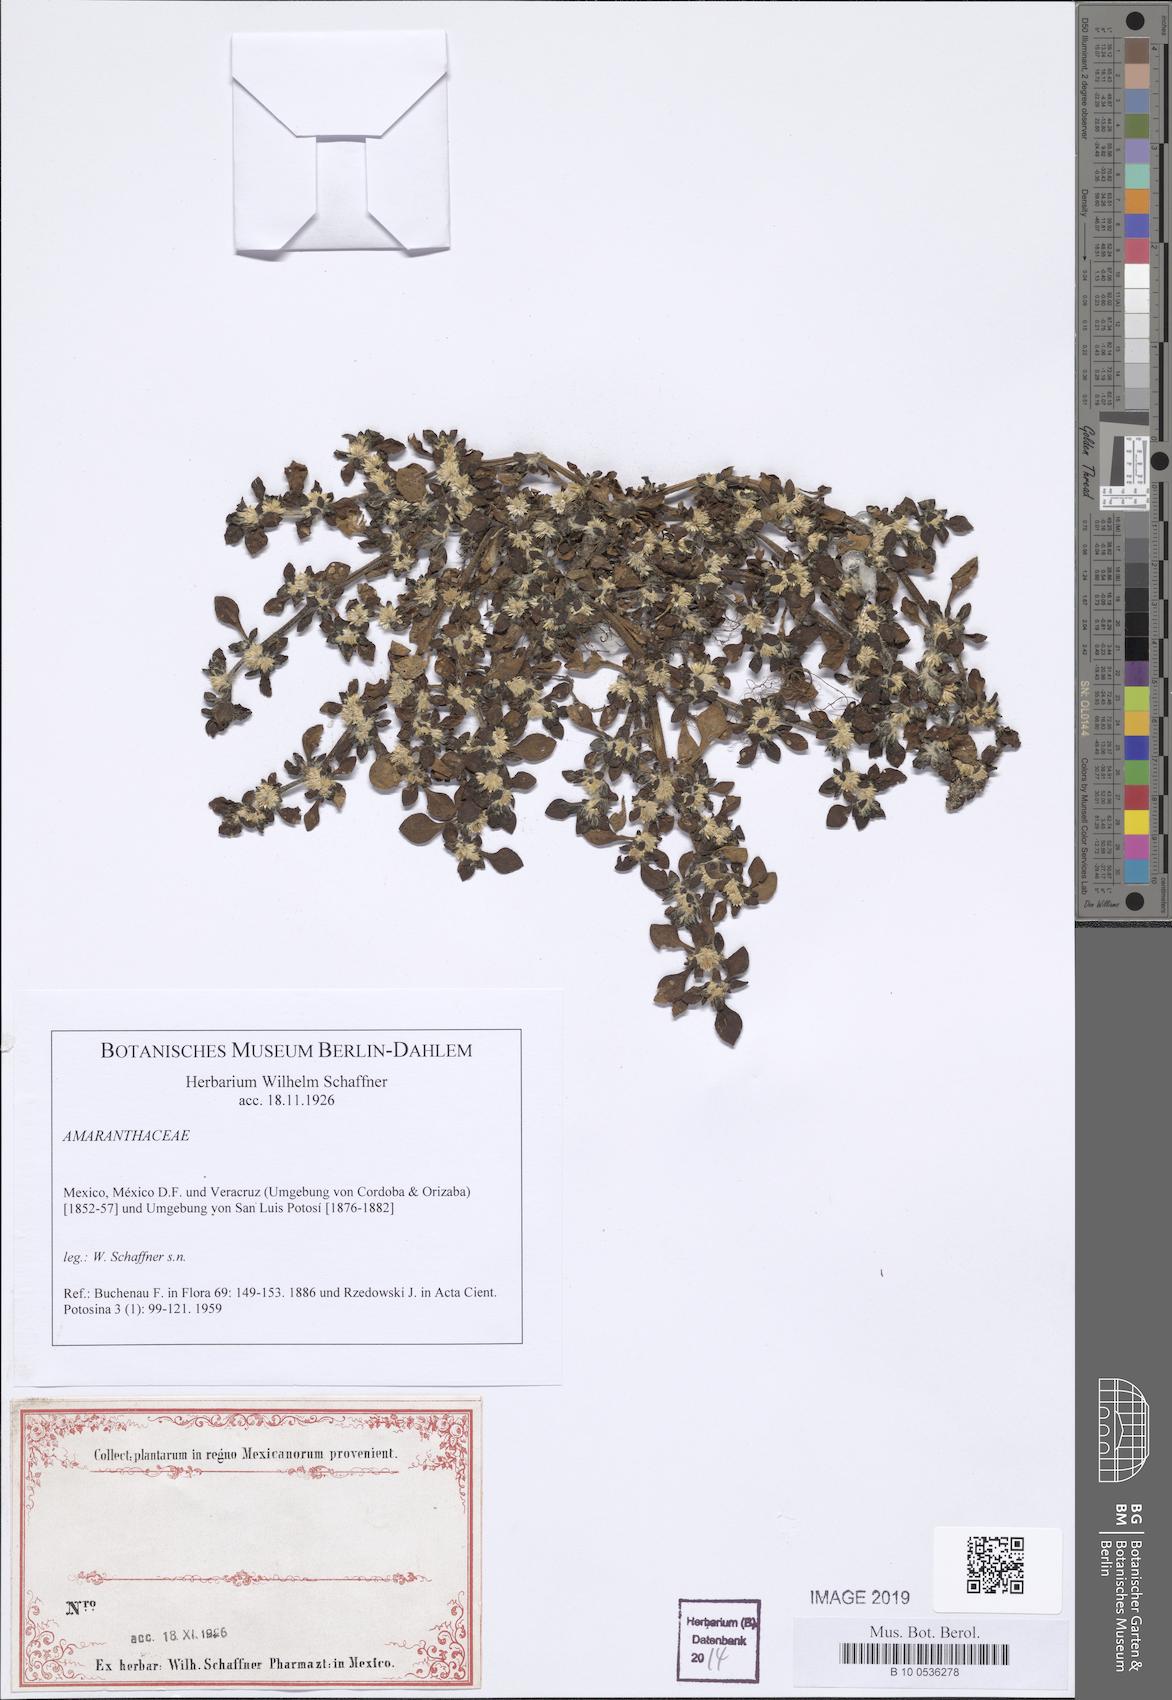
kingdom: Plantae
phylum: Tracheophyta
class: Magnoliopsida
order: Caryophyllales
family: Amaranthaceae
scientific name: Amaranthaceae
